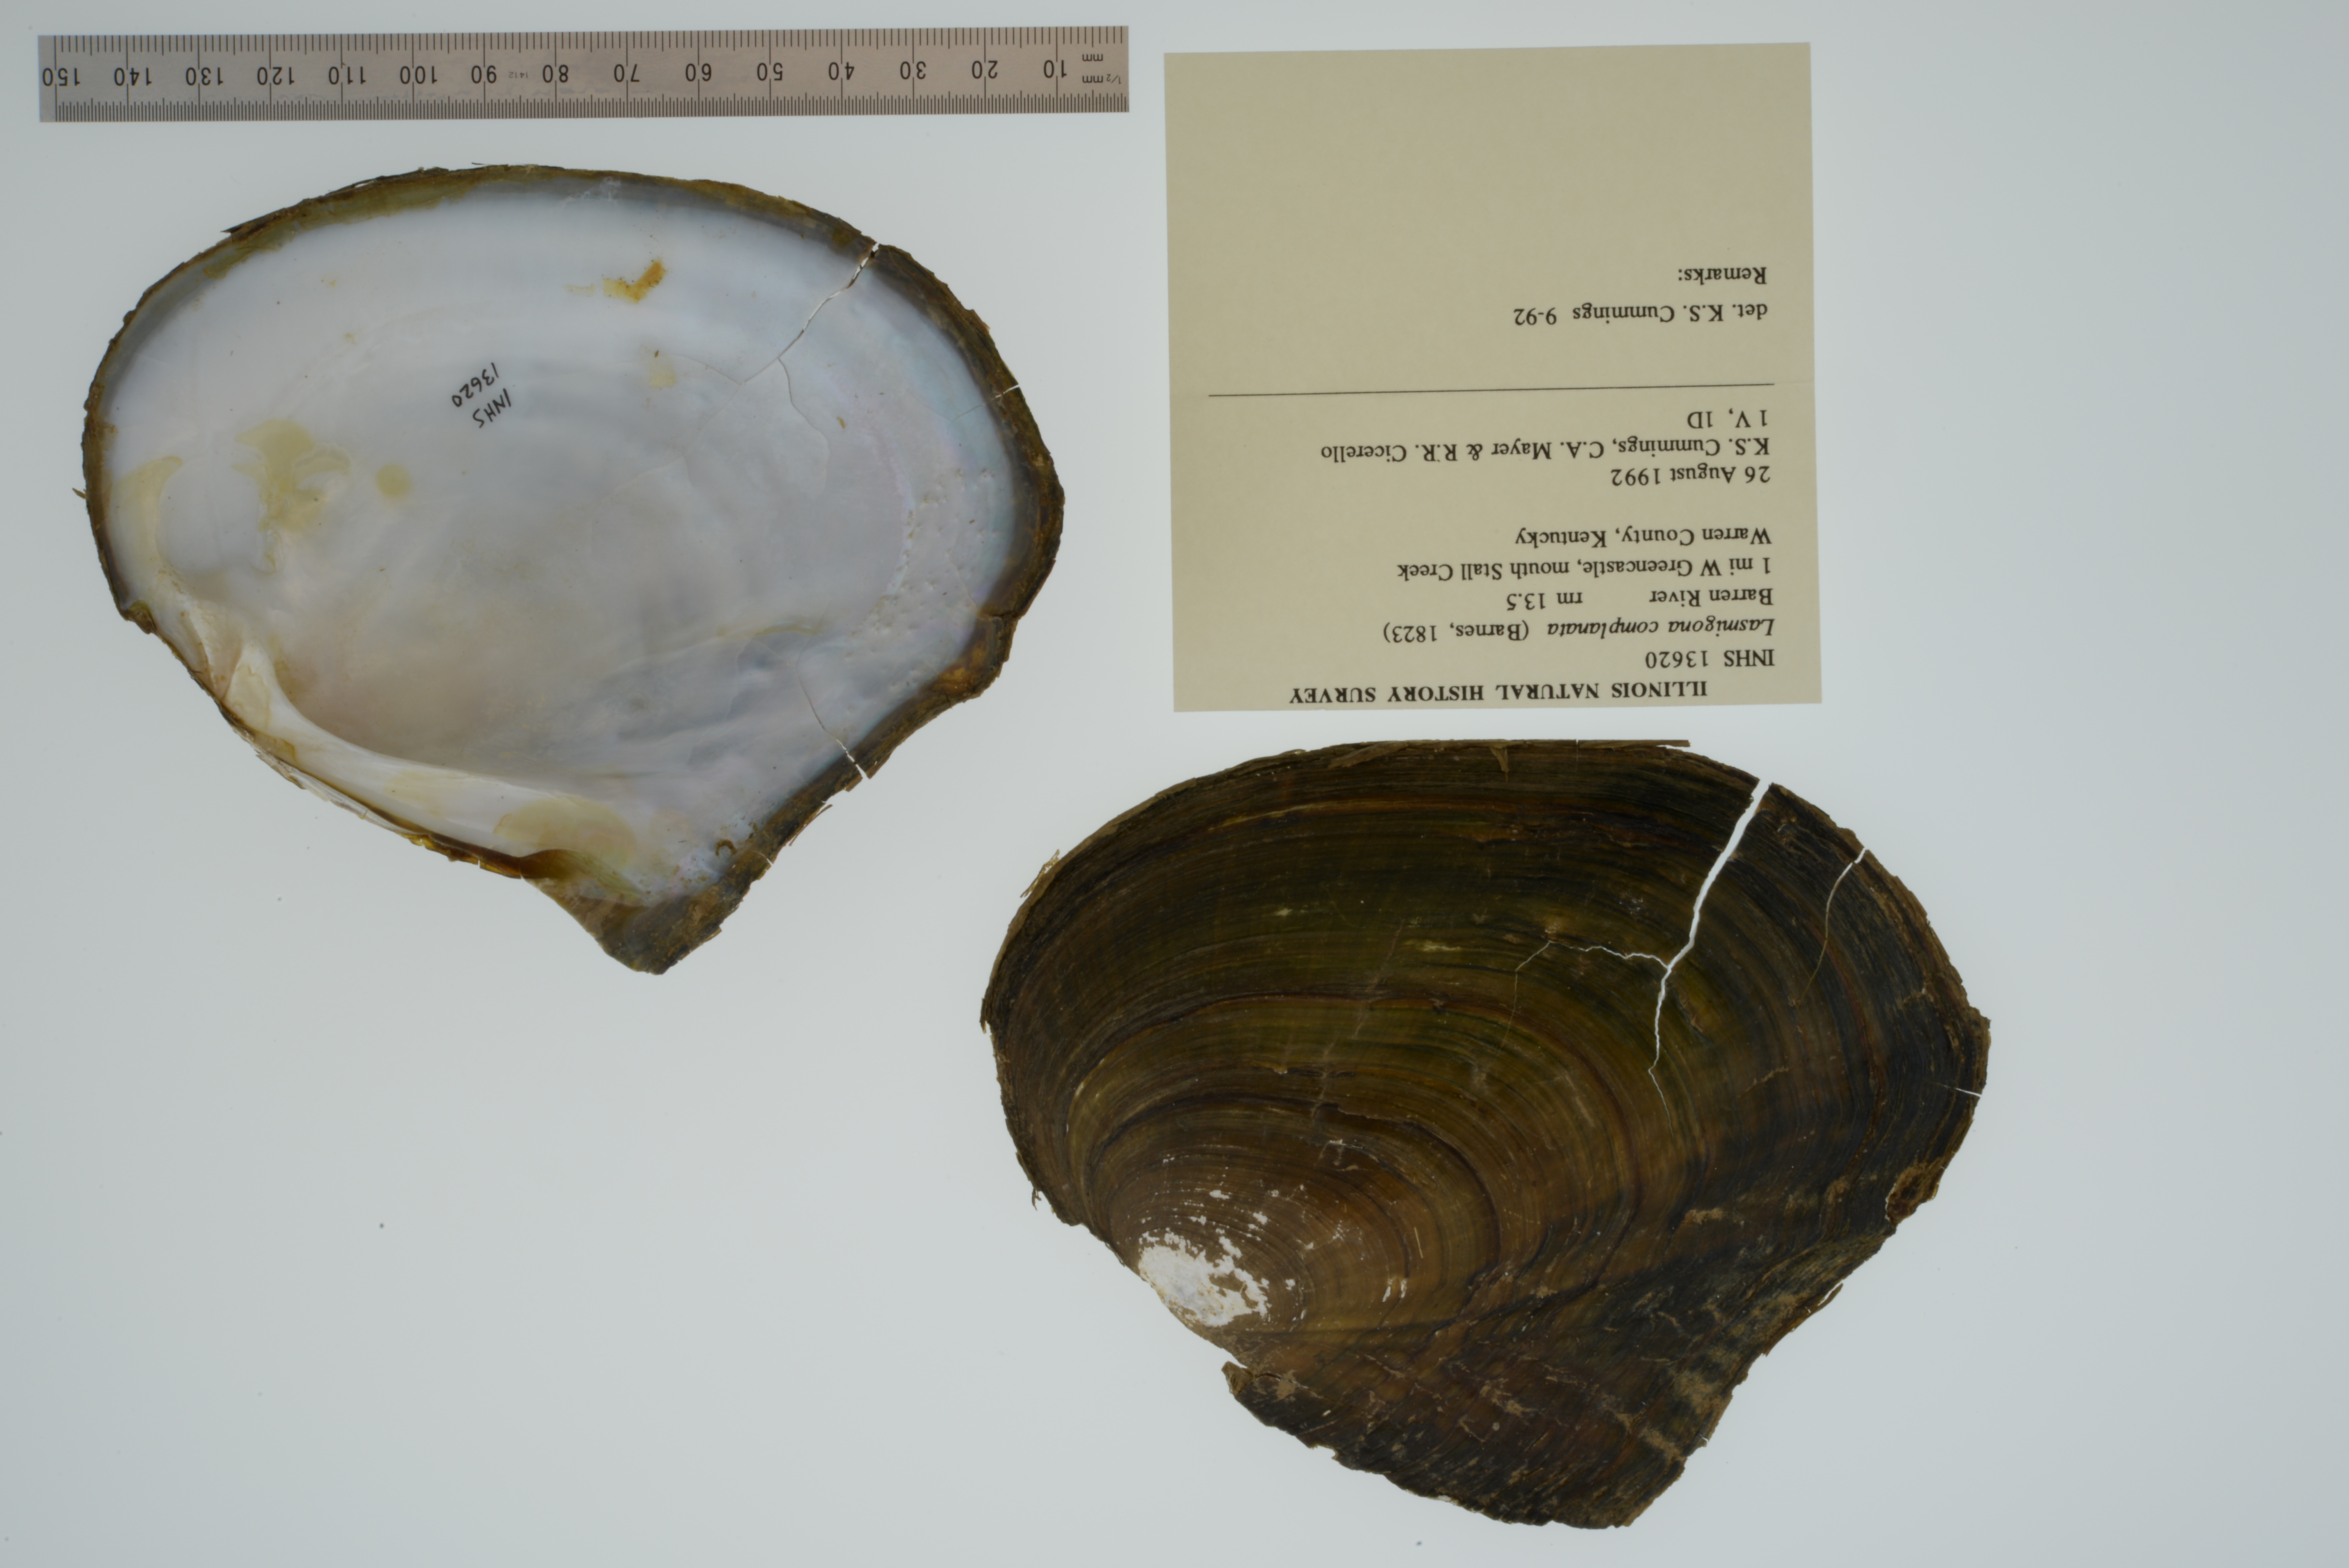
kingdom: Animalia
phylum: Mollusca
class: Bivalvia
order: Unionida
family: Unionidae
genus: Lasmigona
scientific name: Lasmigona complanata
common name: White heelsplitter
